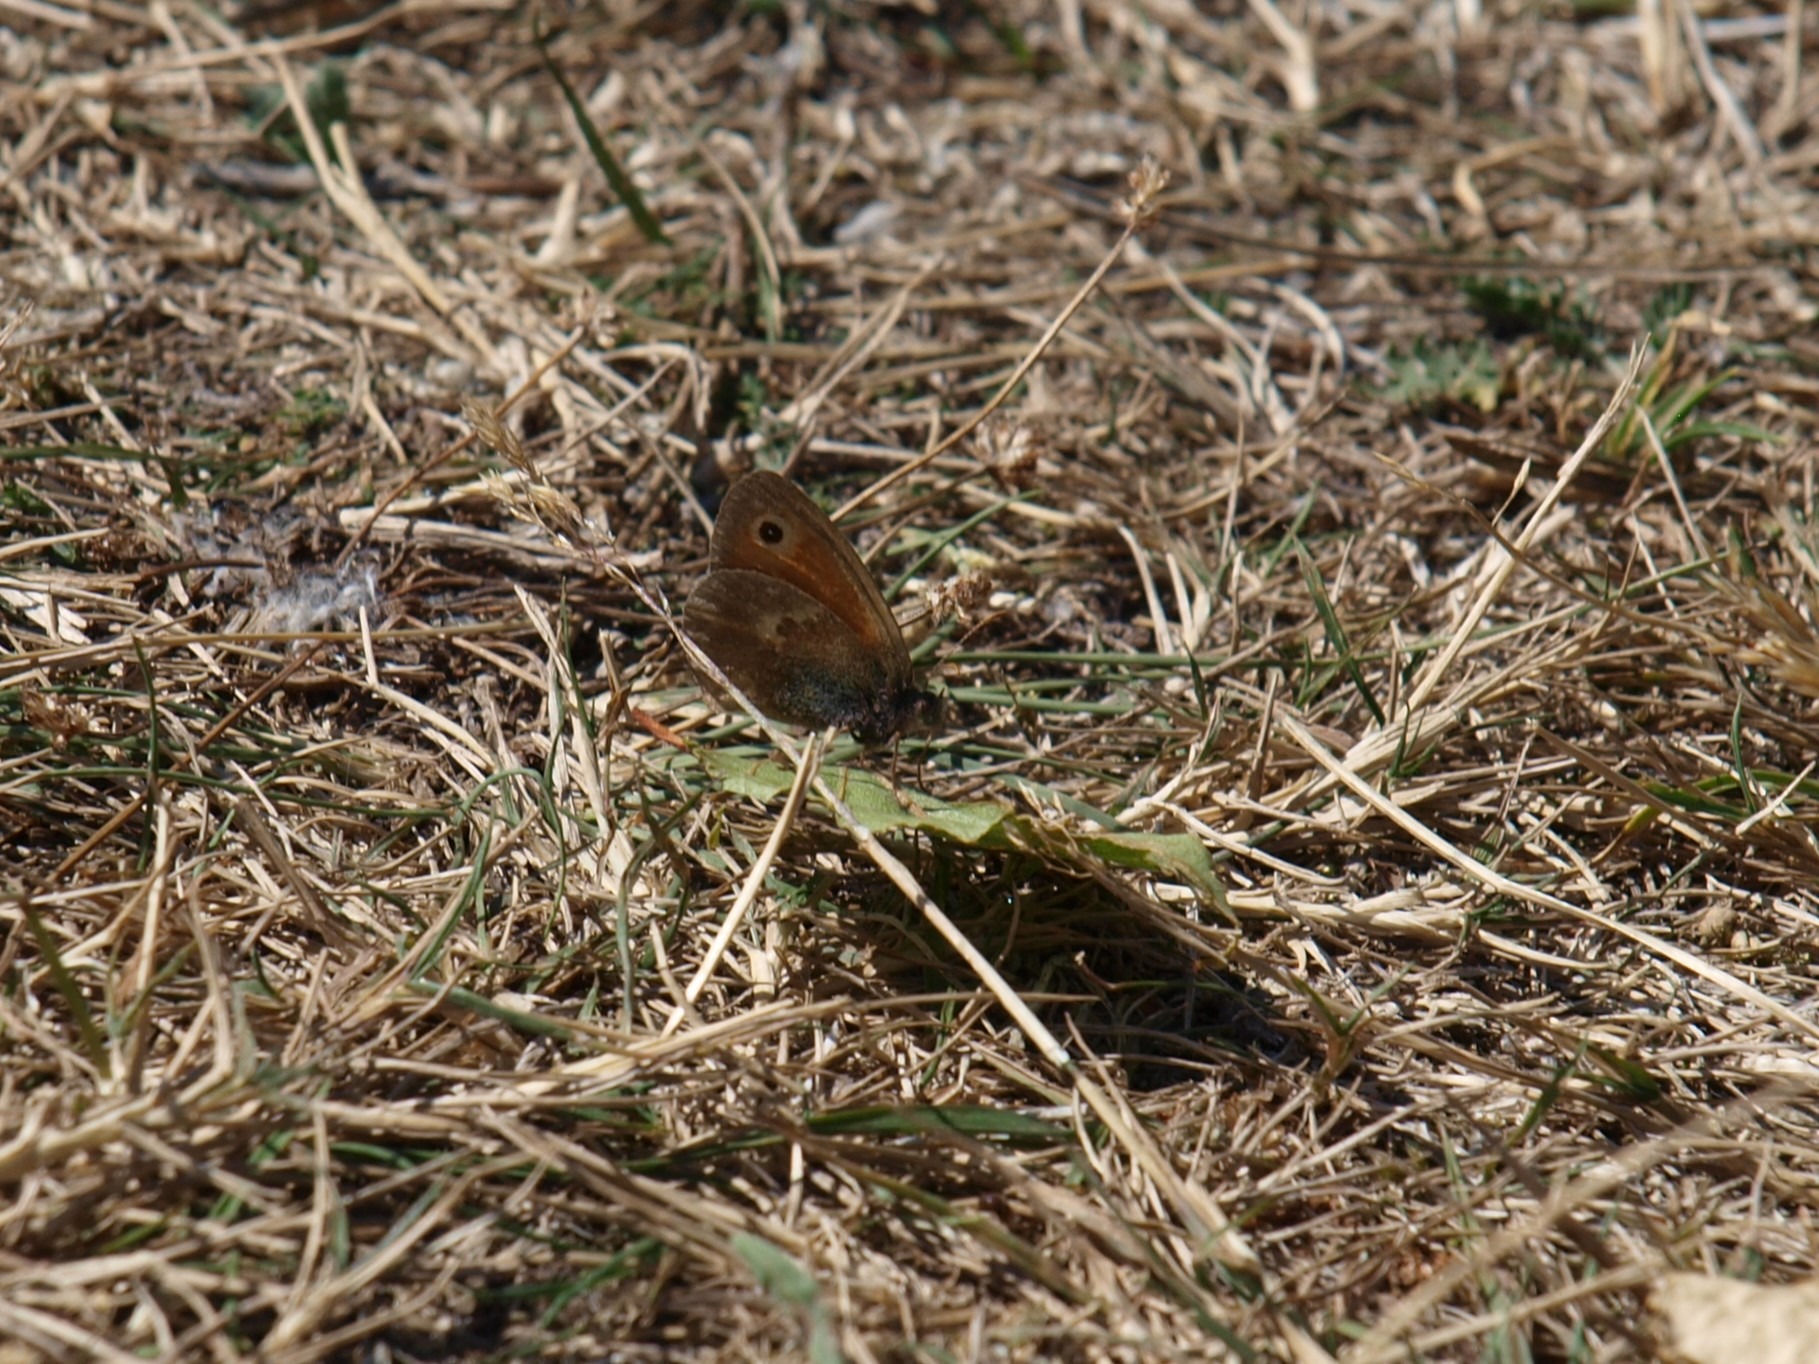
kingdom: Animalia
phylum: Arthropoda
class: Insecta
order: Lepidoptera
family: Nymphalidae
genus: Coenonympha
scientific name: Coenonympha pamphilus
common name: Okkergul randøje
